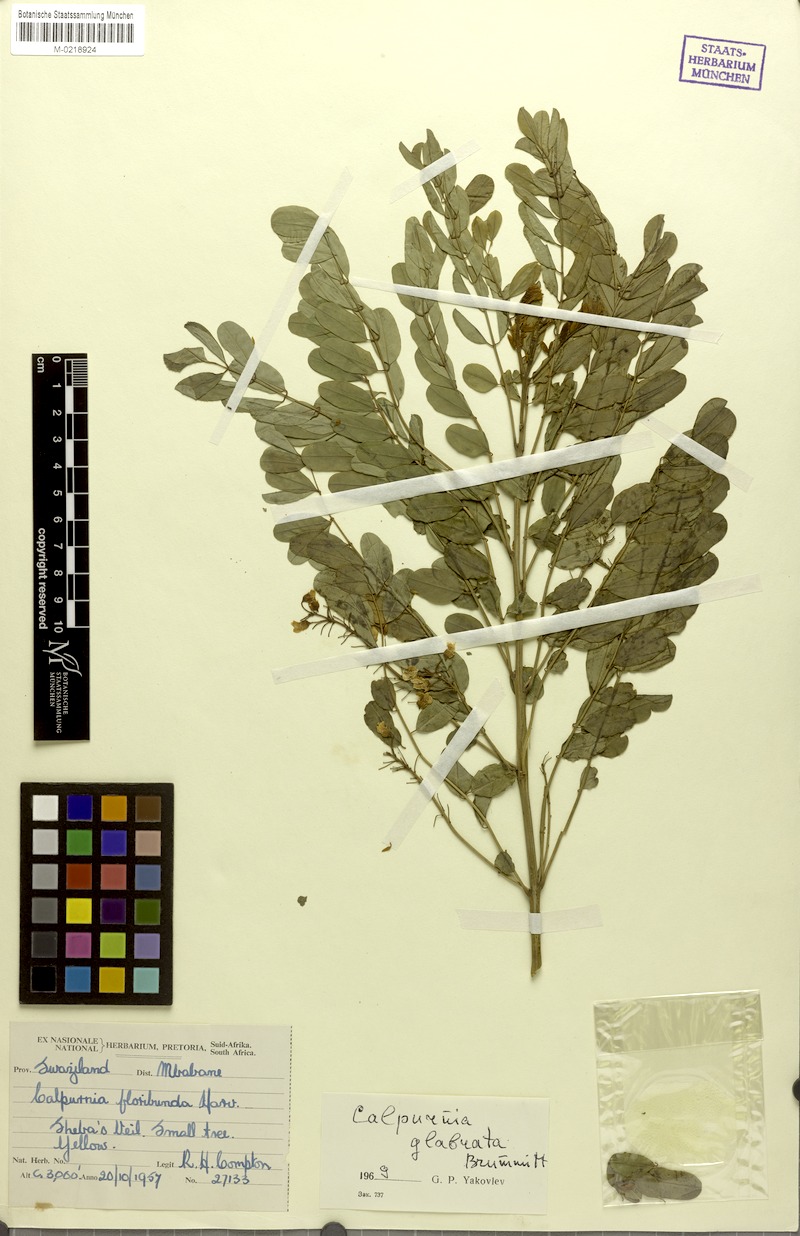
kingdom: Plantae
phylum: Tracheophyta
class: Magnoliopsida
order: Fabales
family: Fabaceae
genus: Calpurnia
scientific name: Calpurnia glabrata
